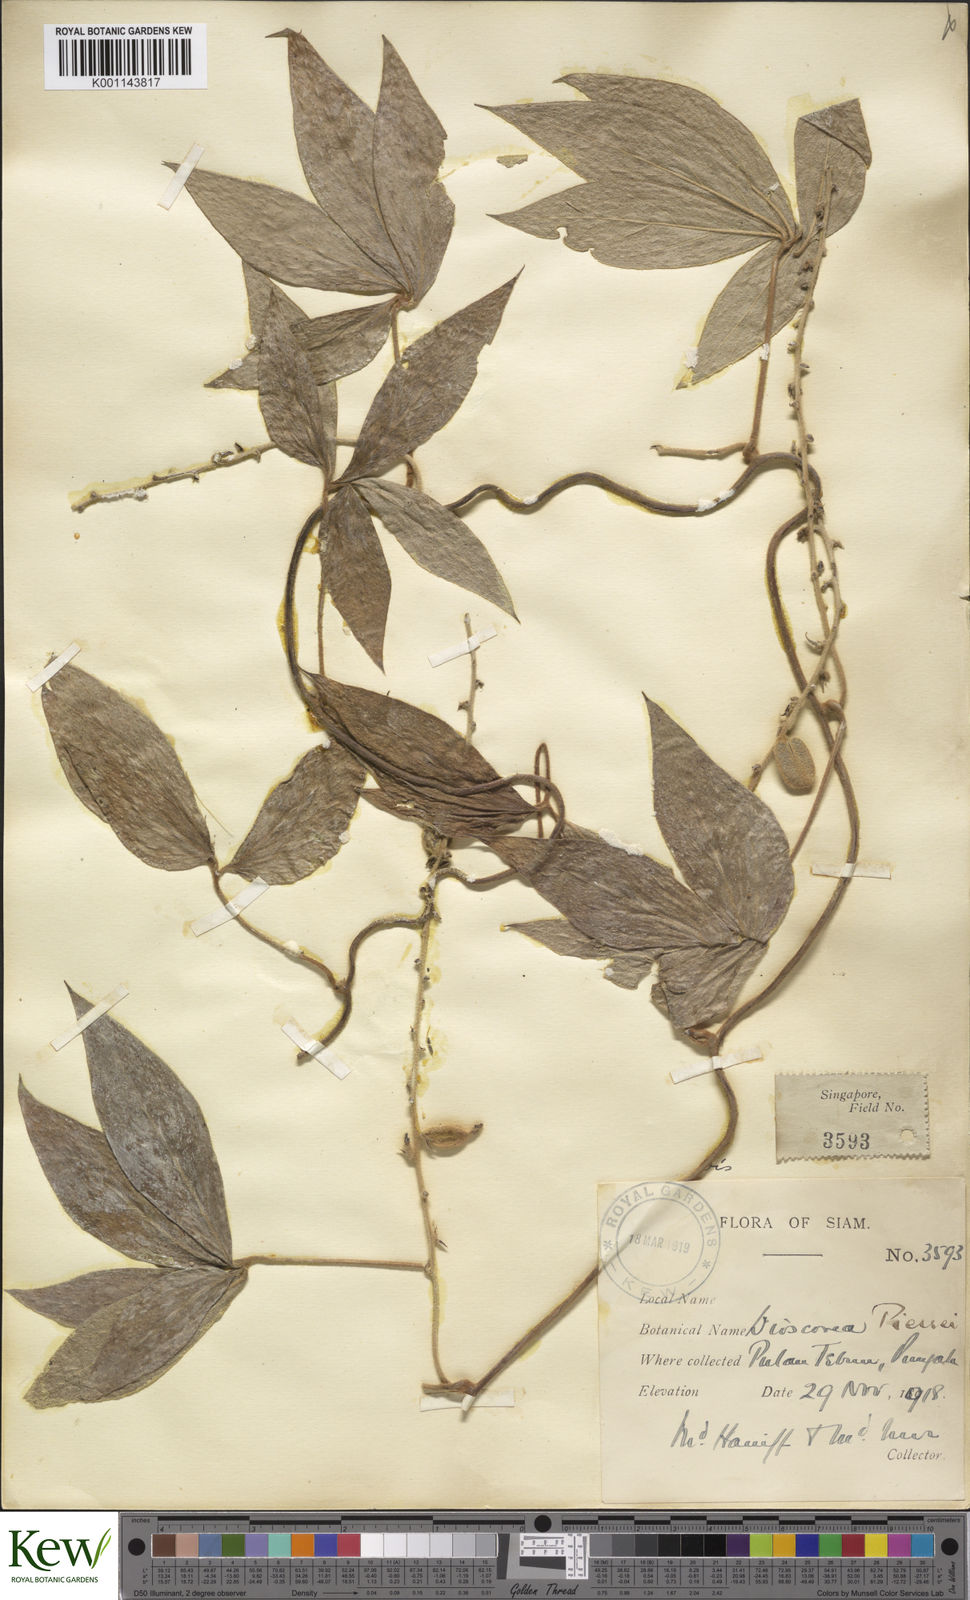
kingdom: Plantae
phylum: Tracheophyta
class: Liliopsida
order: Dioscoreales
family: Dioscoreaceae
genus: Dioscorea
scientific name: Dioscorea pierrei
